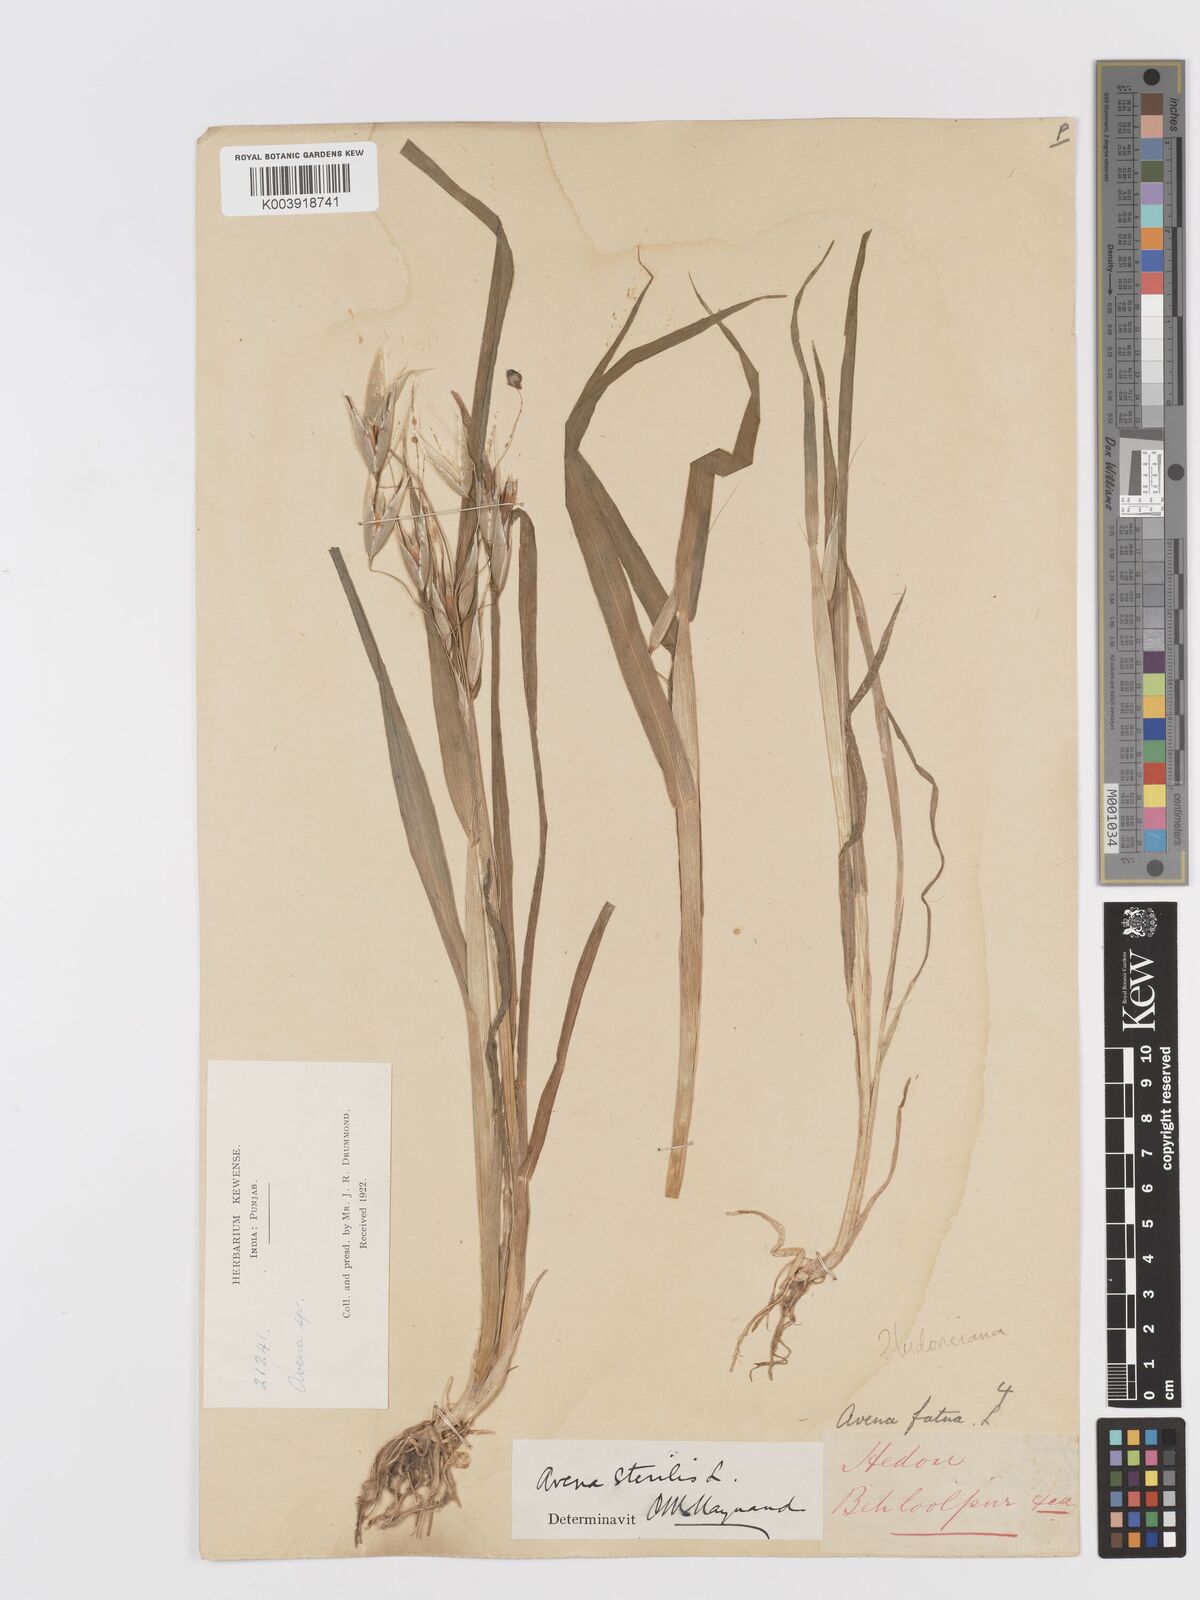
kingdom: Plantae
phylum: Tracheophyta
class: Liliopsida
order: Poales
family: Poaceae
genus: Avena
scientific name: Avena sterilis
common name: Animated oat
